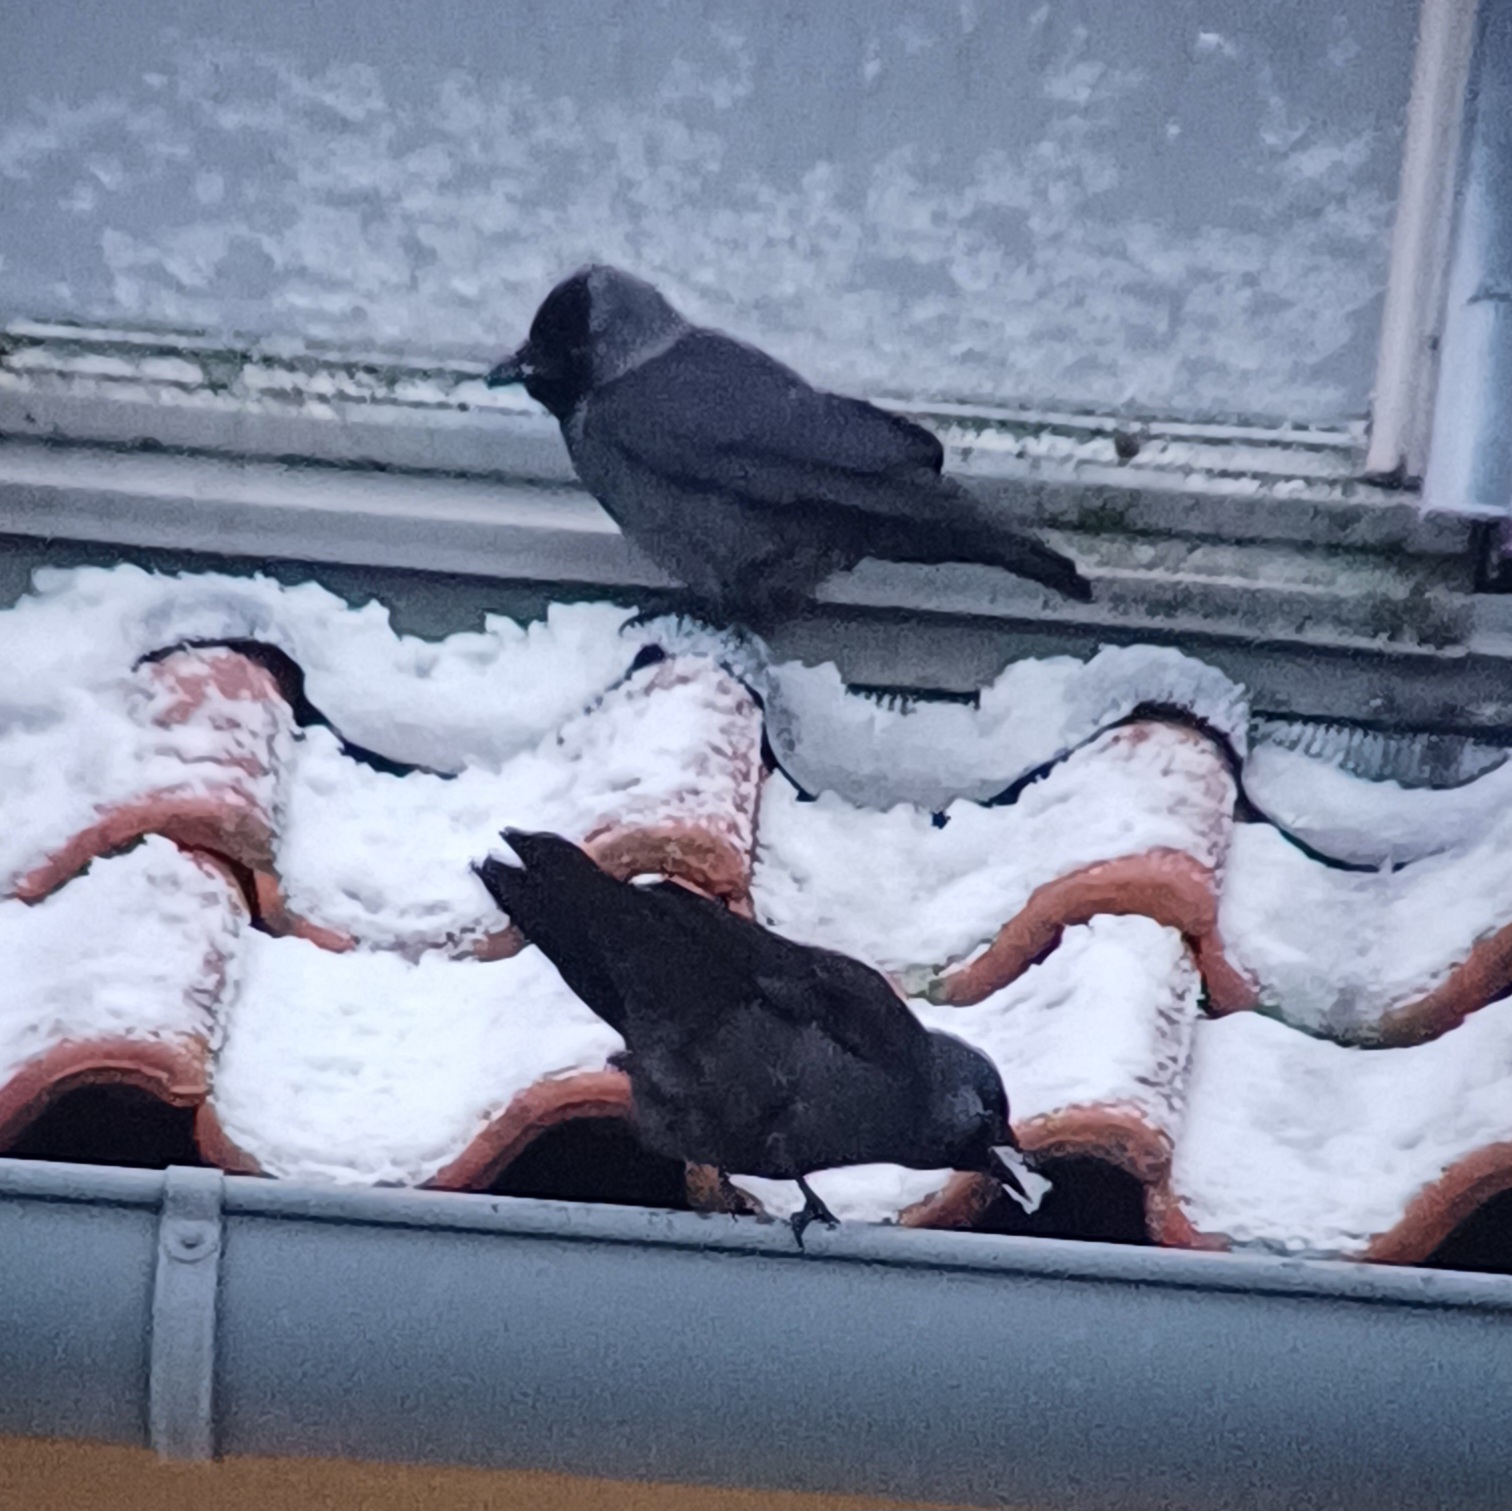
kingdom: Animalia
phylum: Chordata
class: Aves
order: Passeriformes
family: Corvidae
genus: Coloeus
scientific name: Coloeus monedula
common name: Allike
